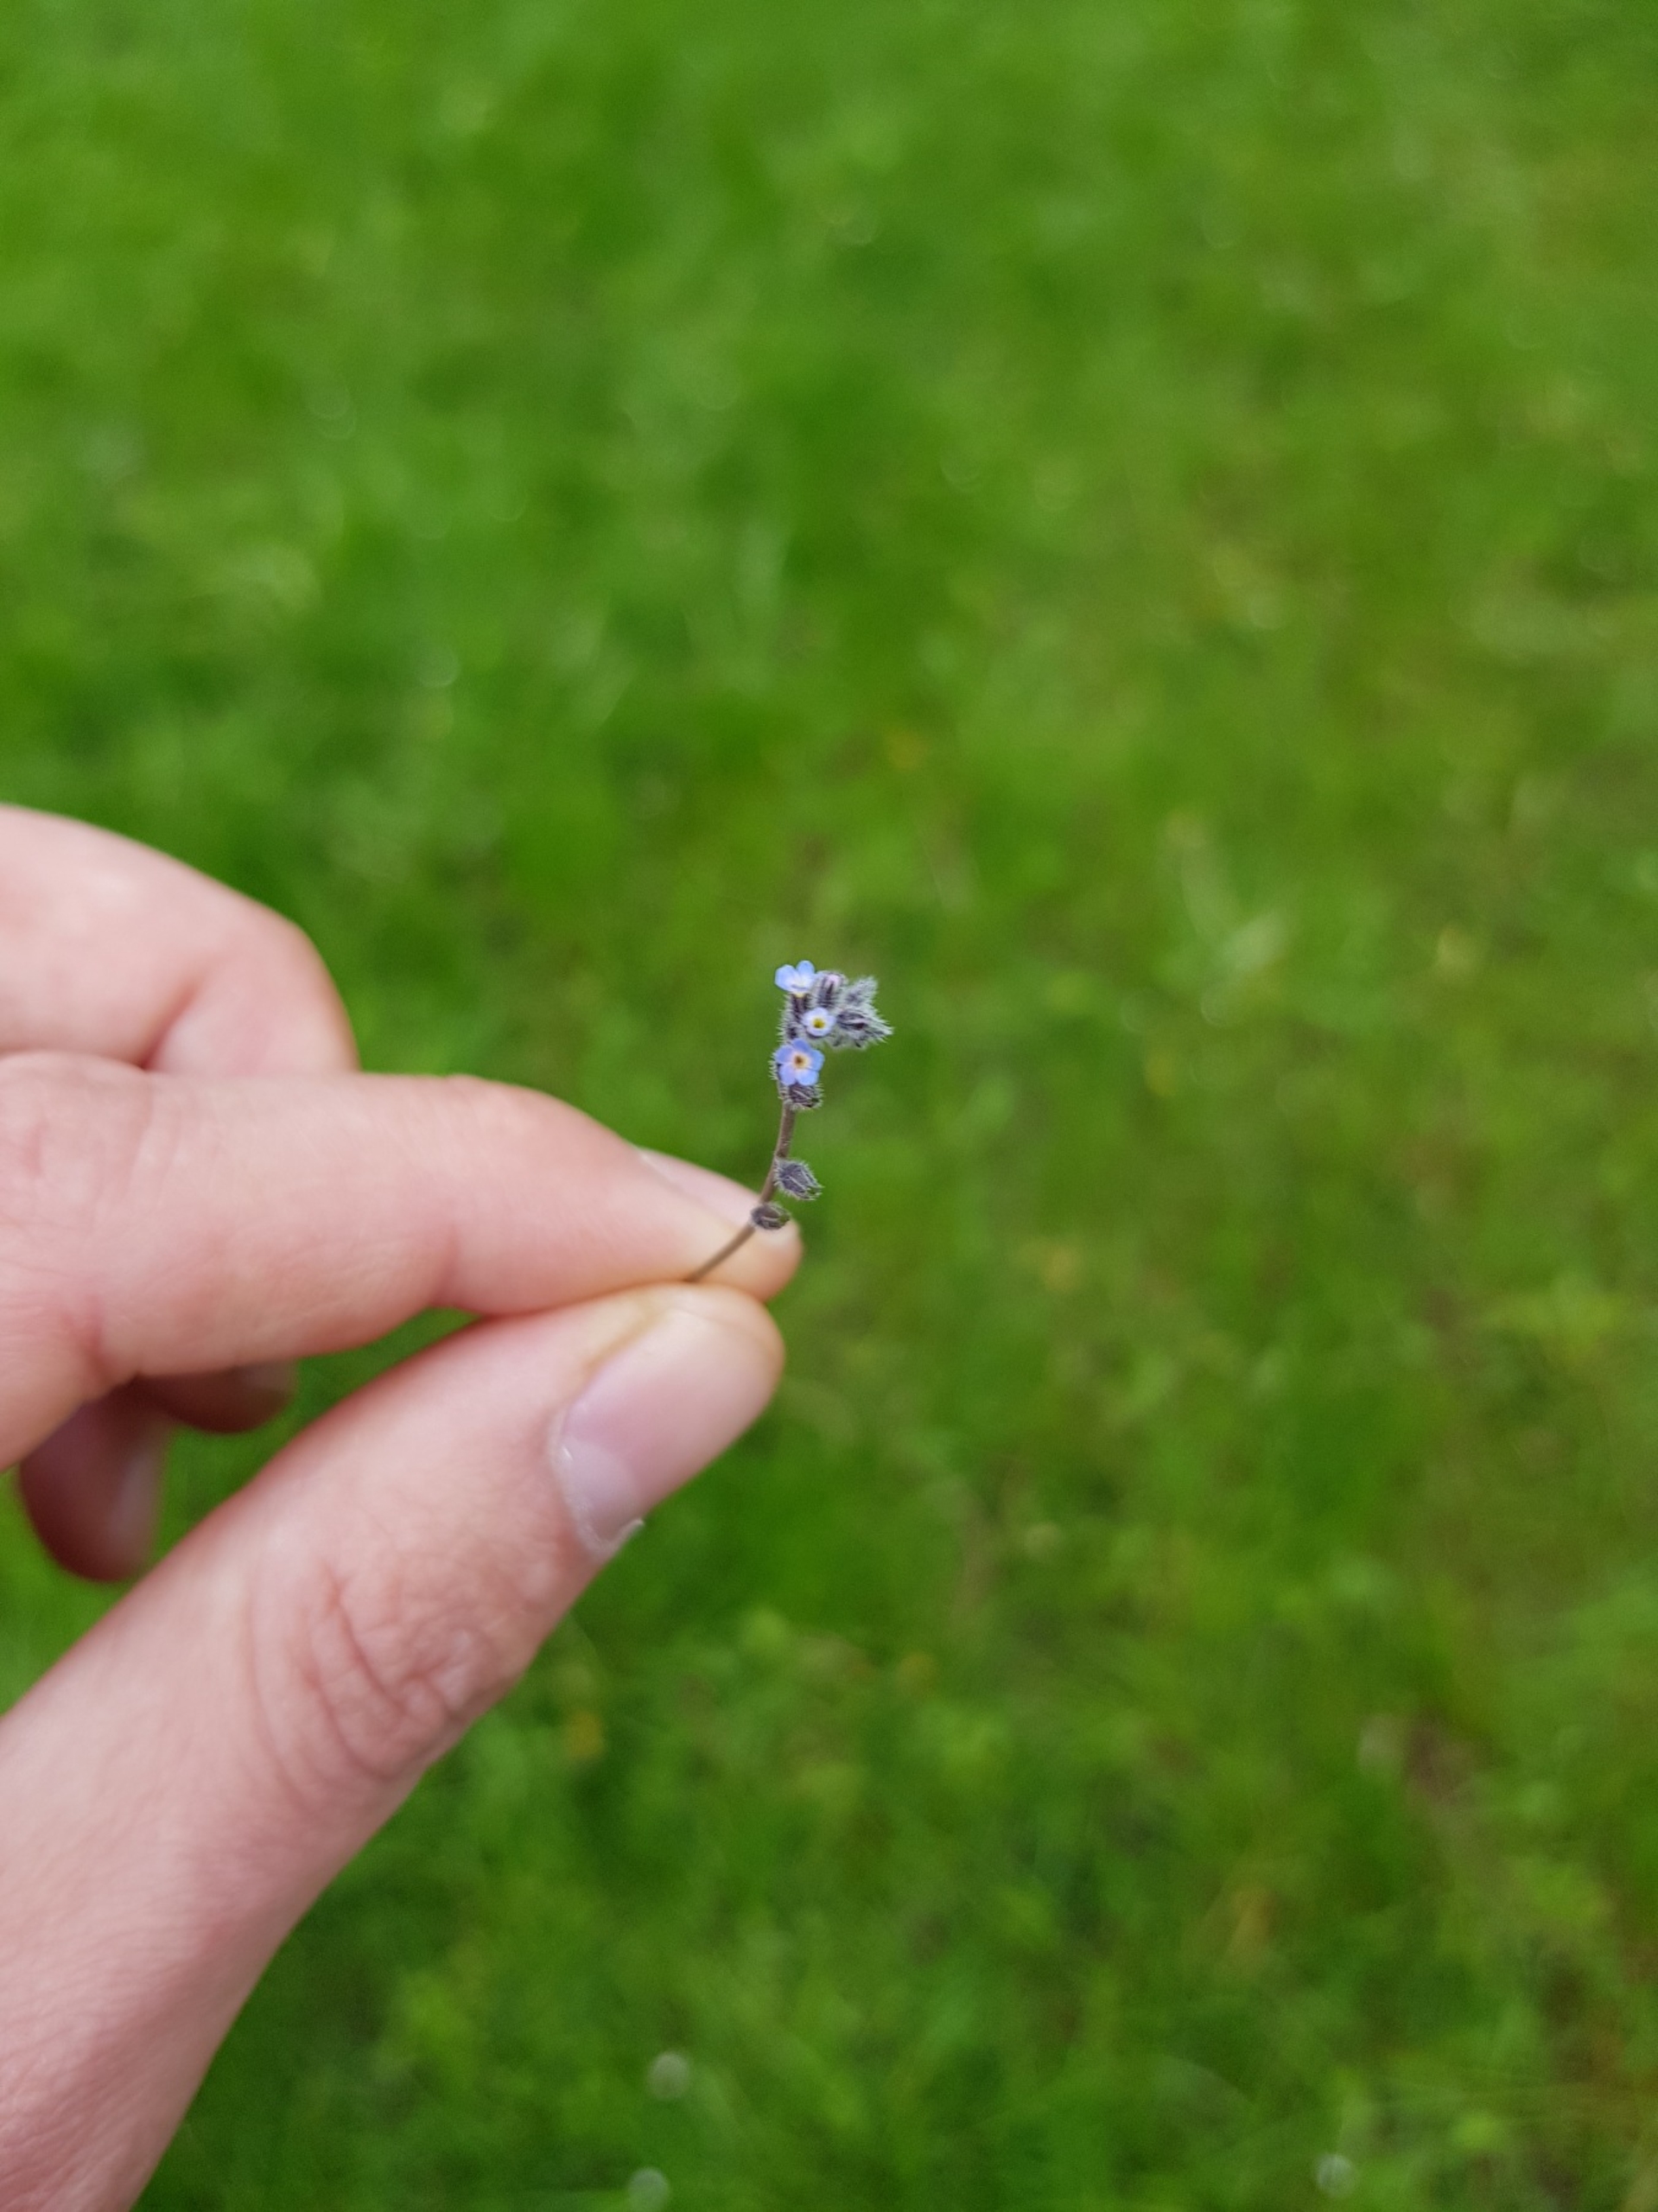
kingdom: Plantae
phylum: Tracheophyta
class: Magnoliopsida
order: Boraginales
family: Boraginaceae
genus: Myosotis
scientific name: Myosotis ramosissima
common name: Bakke-forglemmigej
